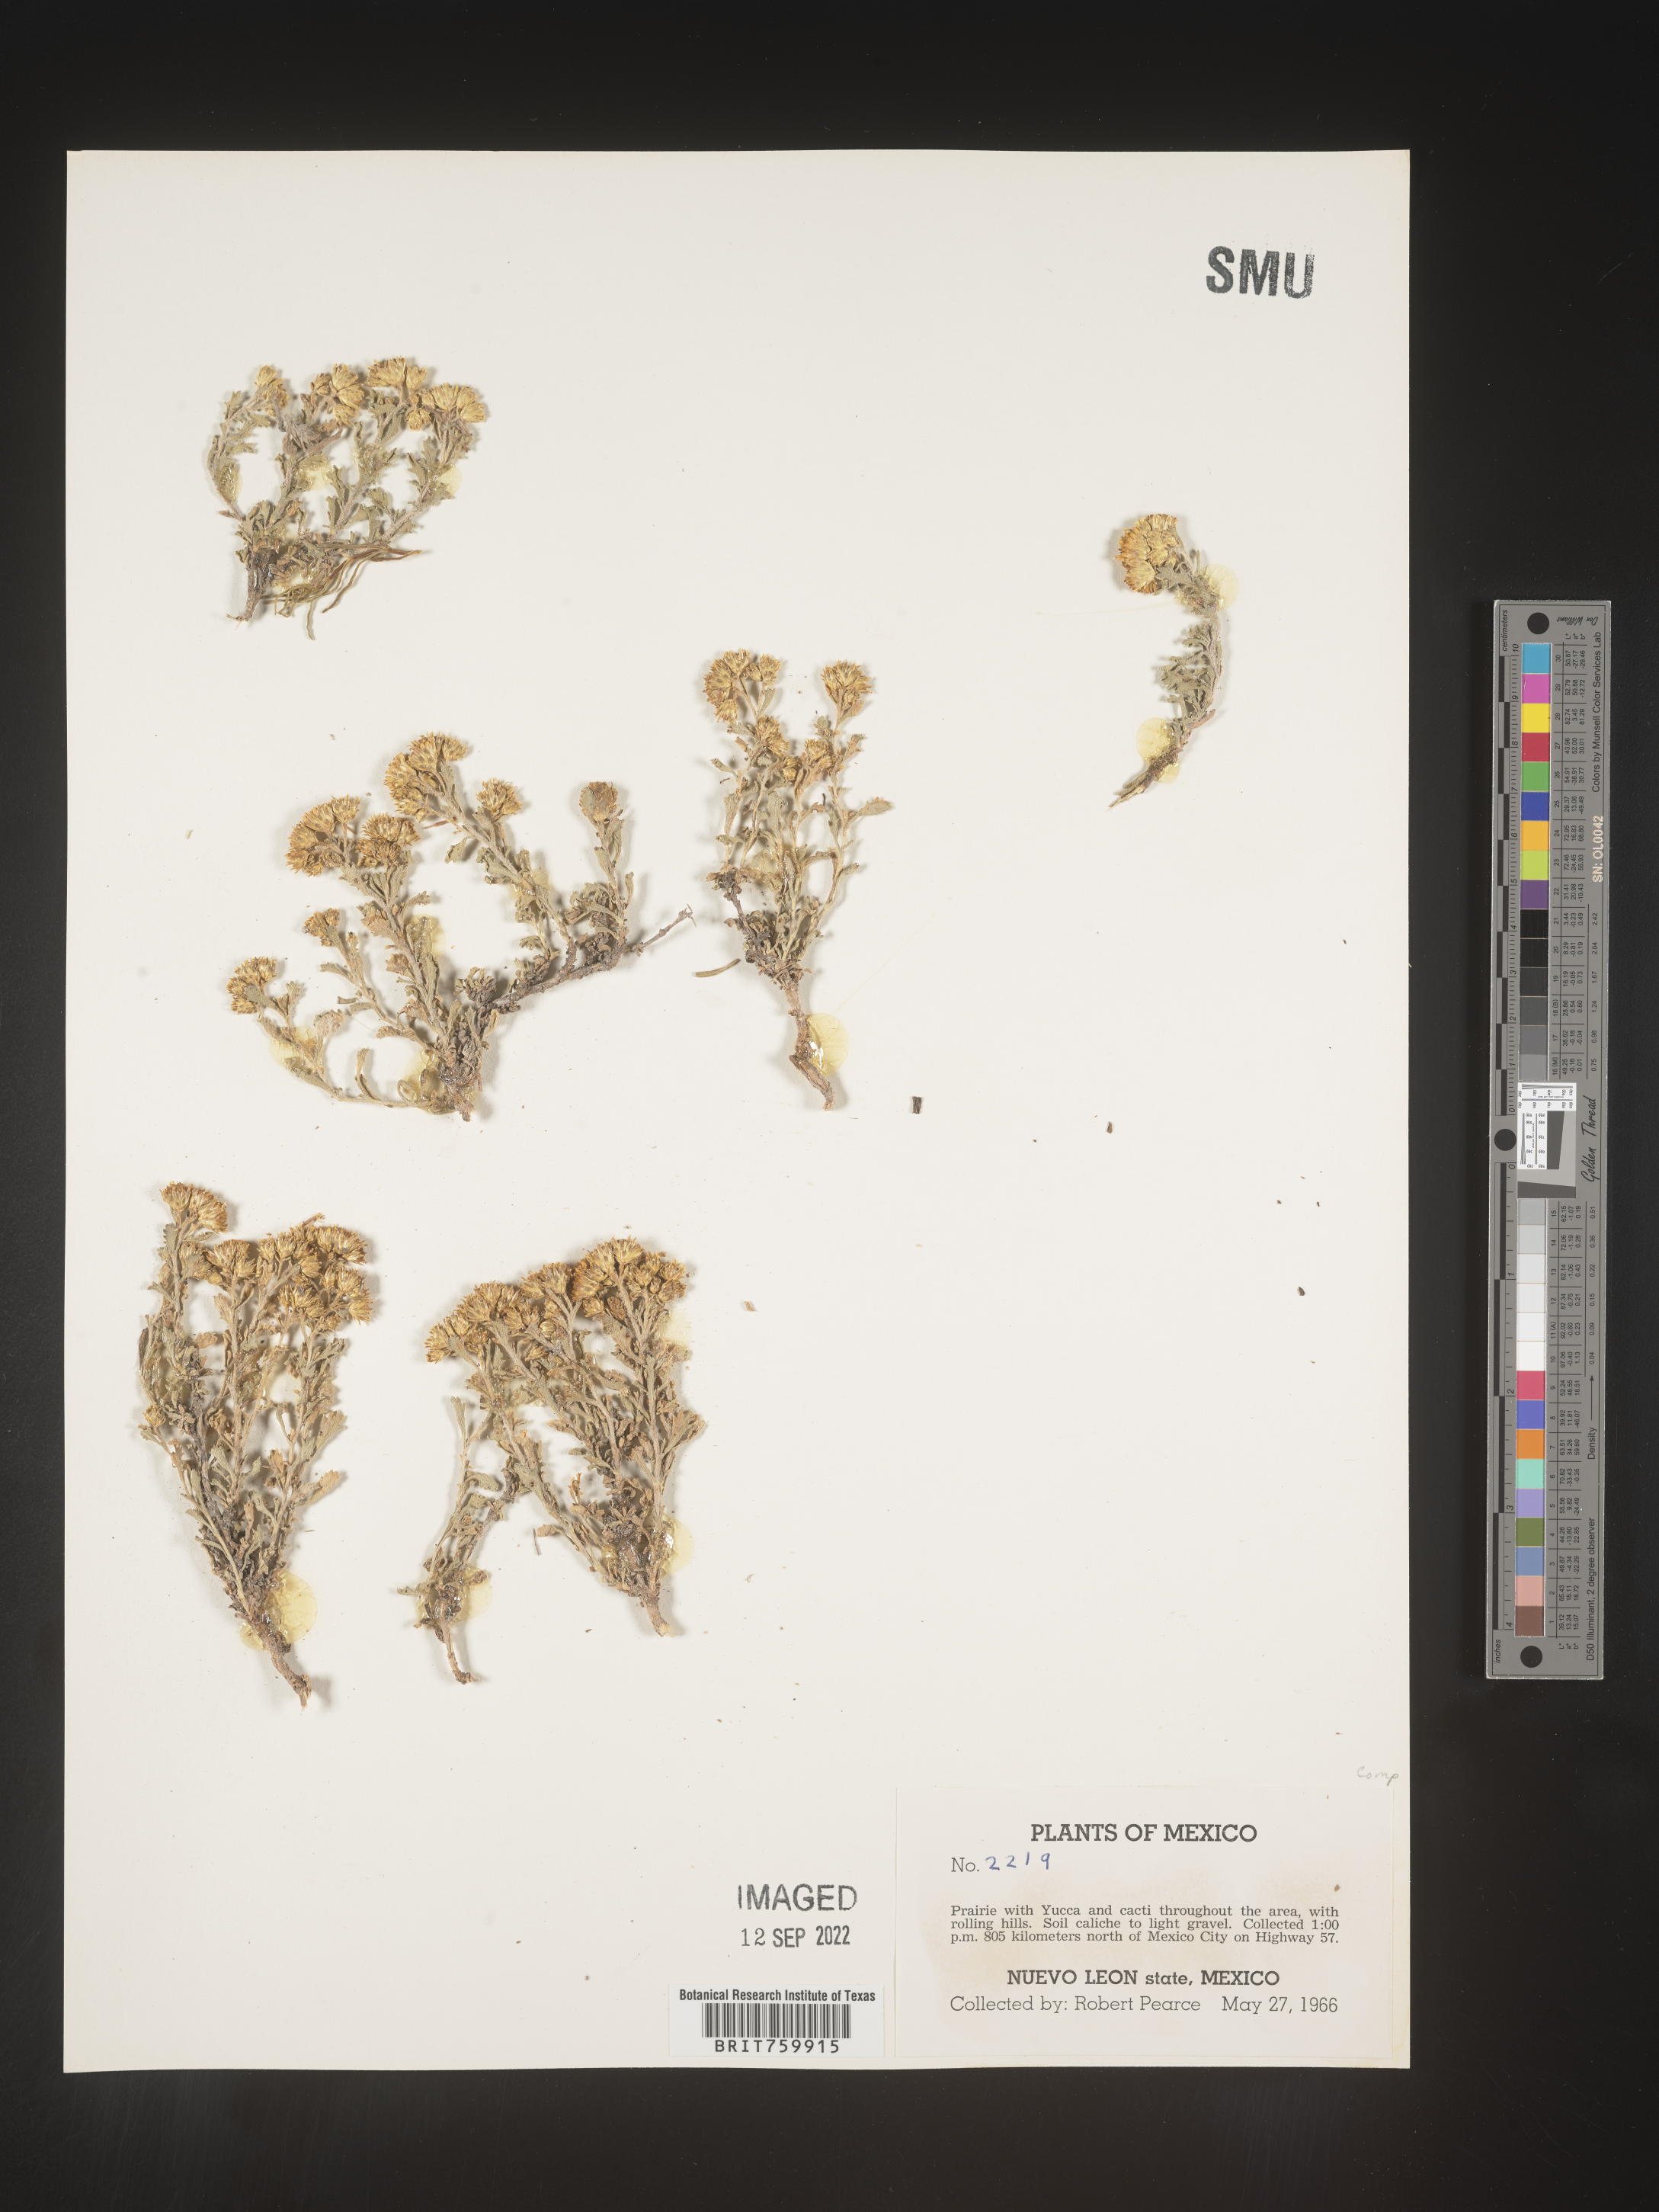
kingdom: Plantae
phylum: Tracheophyta
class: Magnoliopsida
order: Asterales
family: Asteraceae
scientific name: Asteraceae
